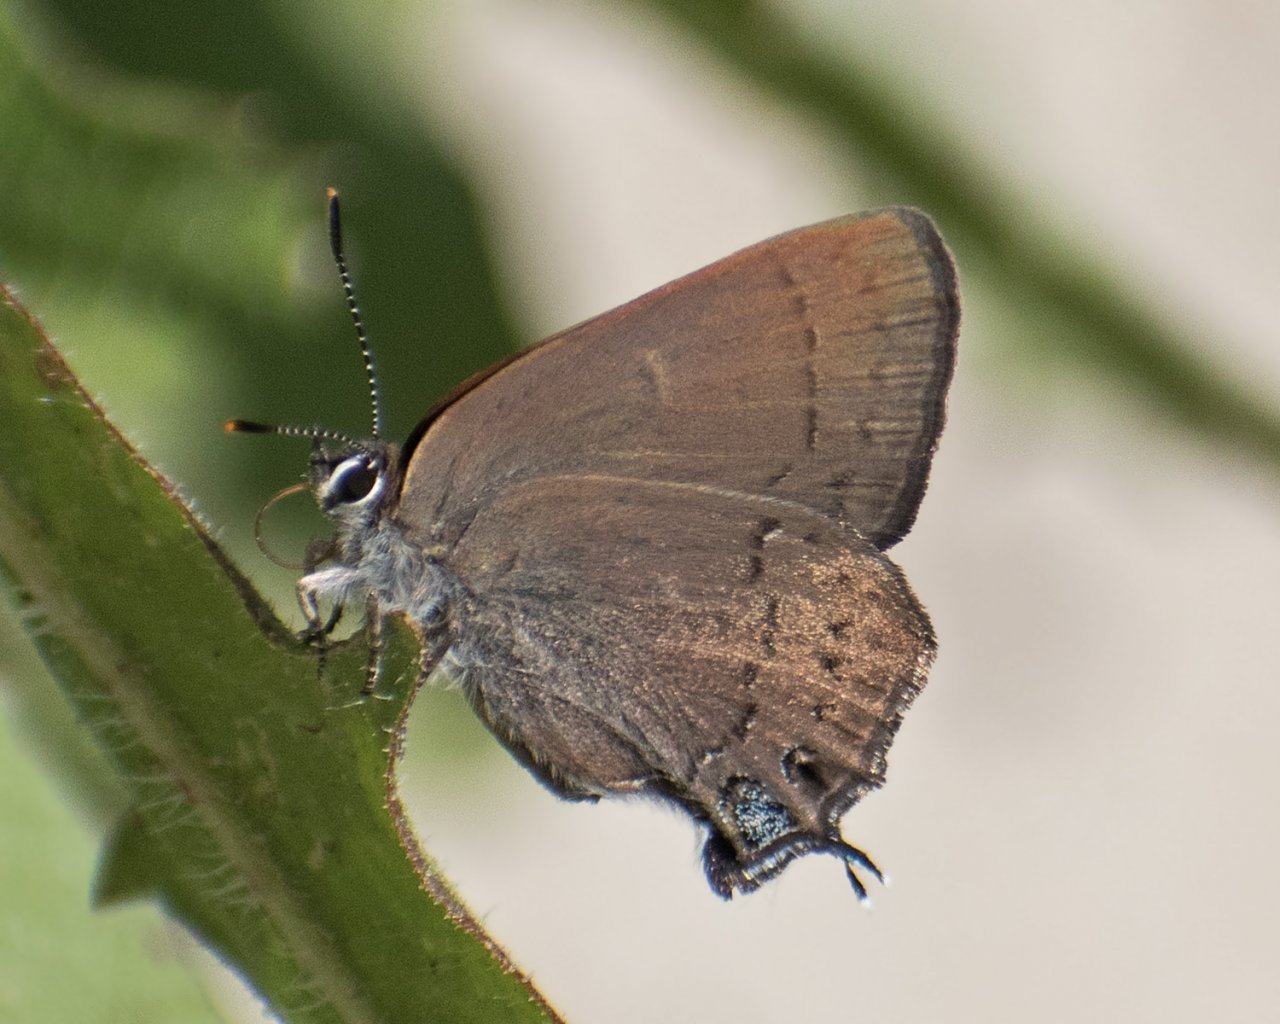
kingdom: Animalia
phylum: Arthropoda
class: Insecta
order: Lepidoptera
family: Lycaenidae
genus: Strymon
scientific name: Strymon saepium
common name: Hedgerow Hairstreak
